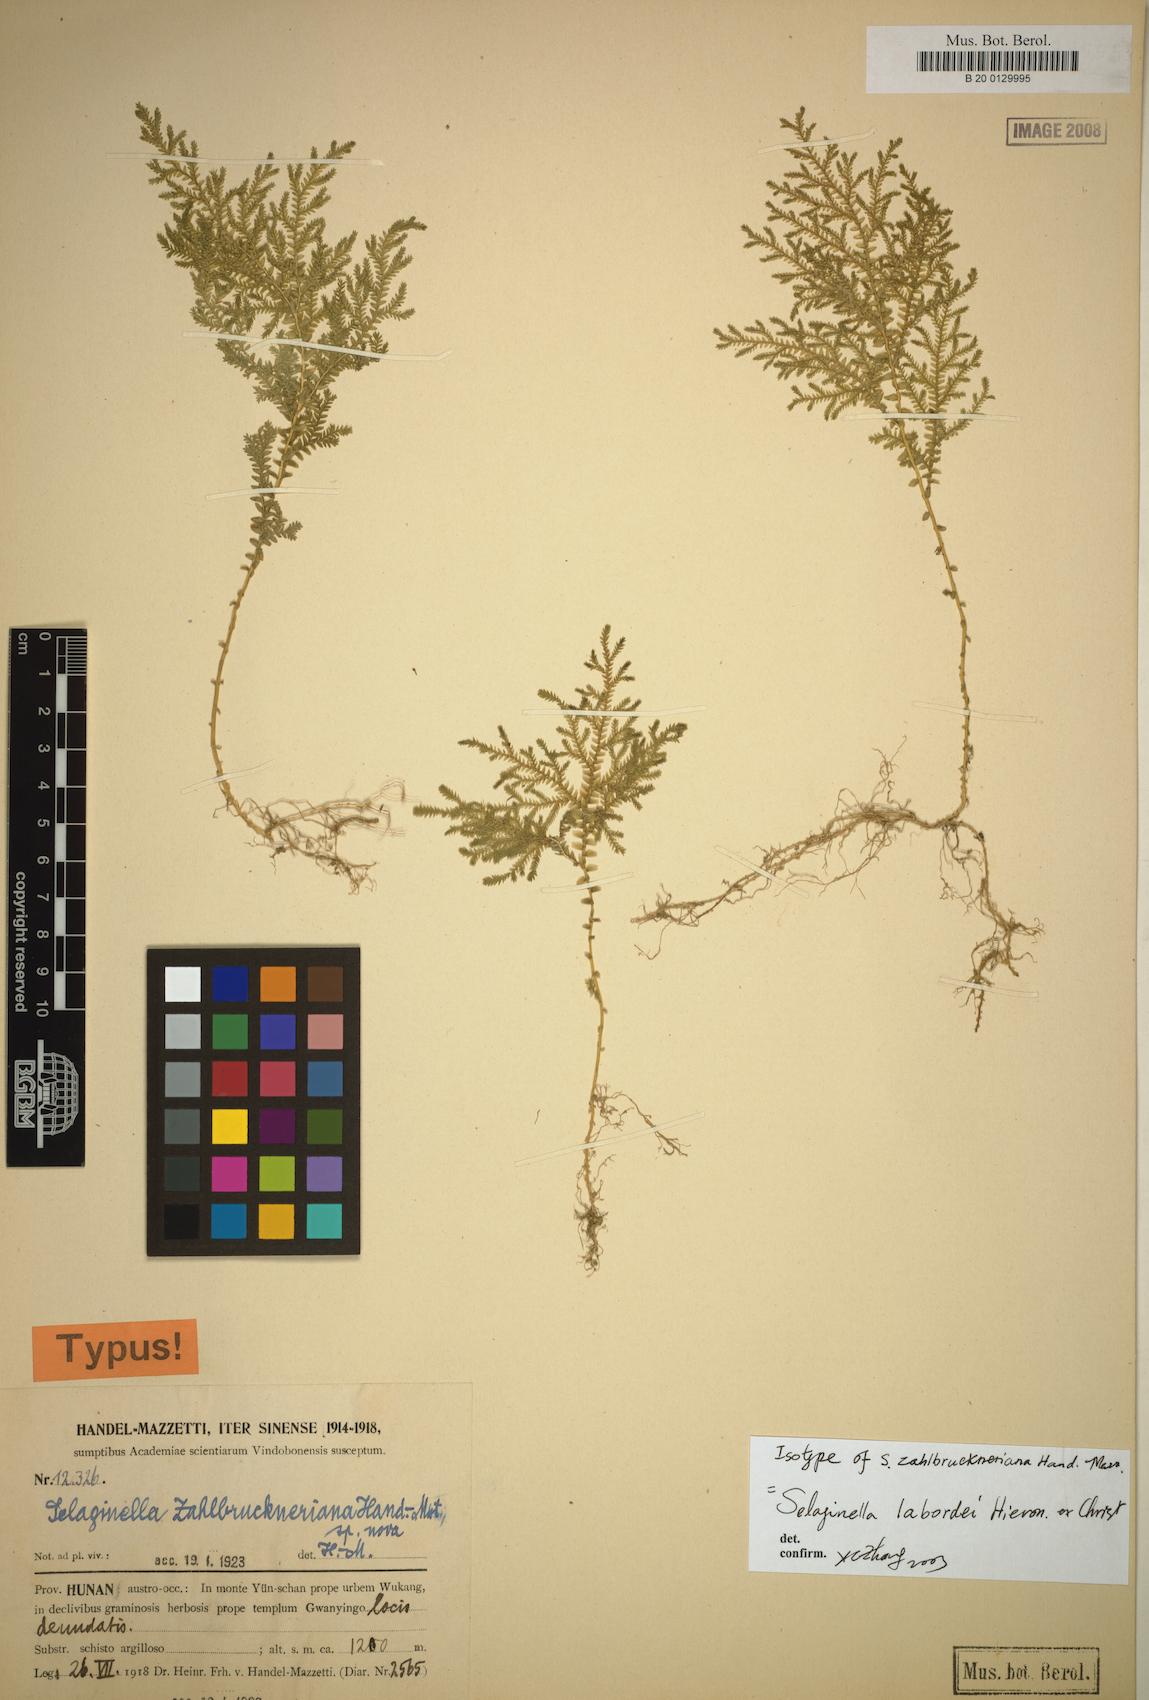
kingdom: Plantae
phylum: Tracheophyta
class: Lycopodiopsida
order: Selaginellales
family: Selaginellaceae
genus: Selaginella
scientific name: Selaginella labordei
